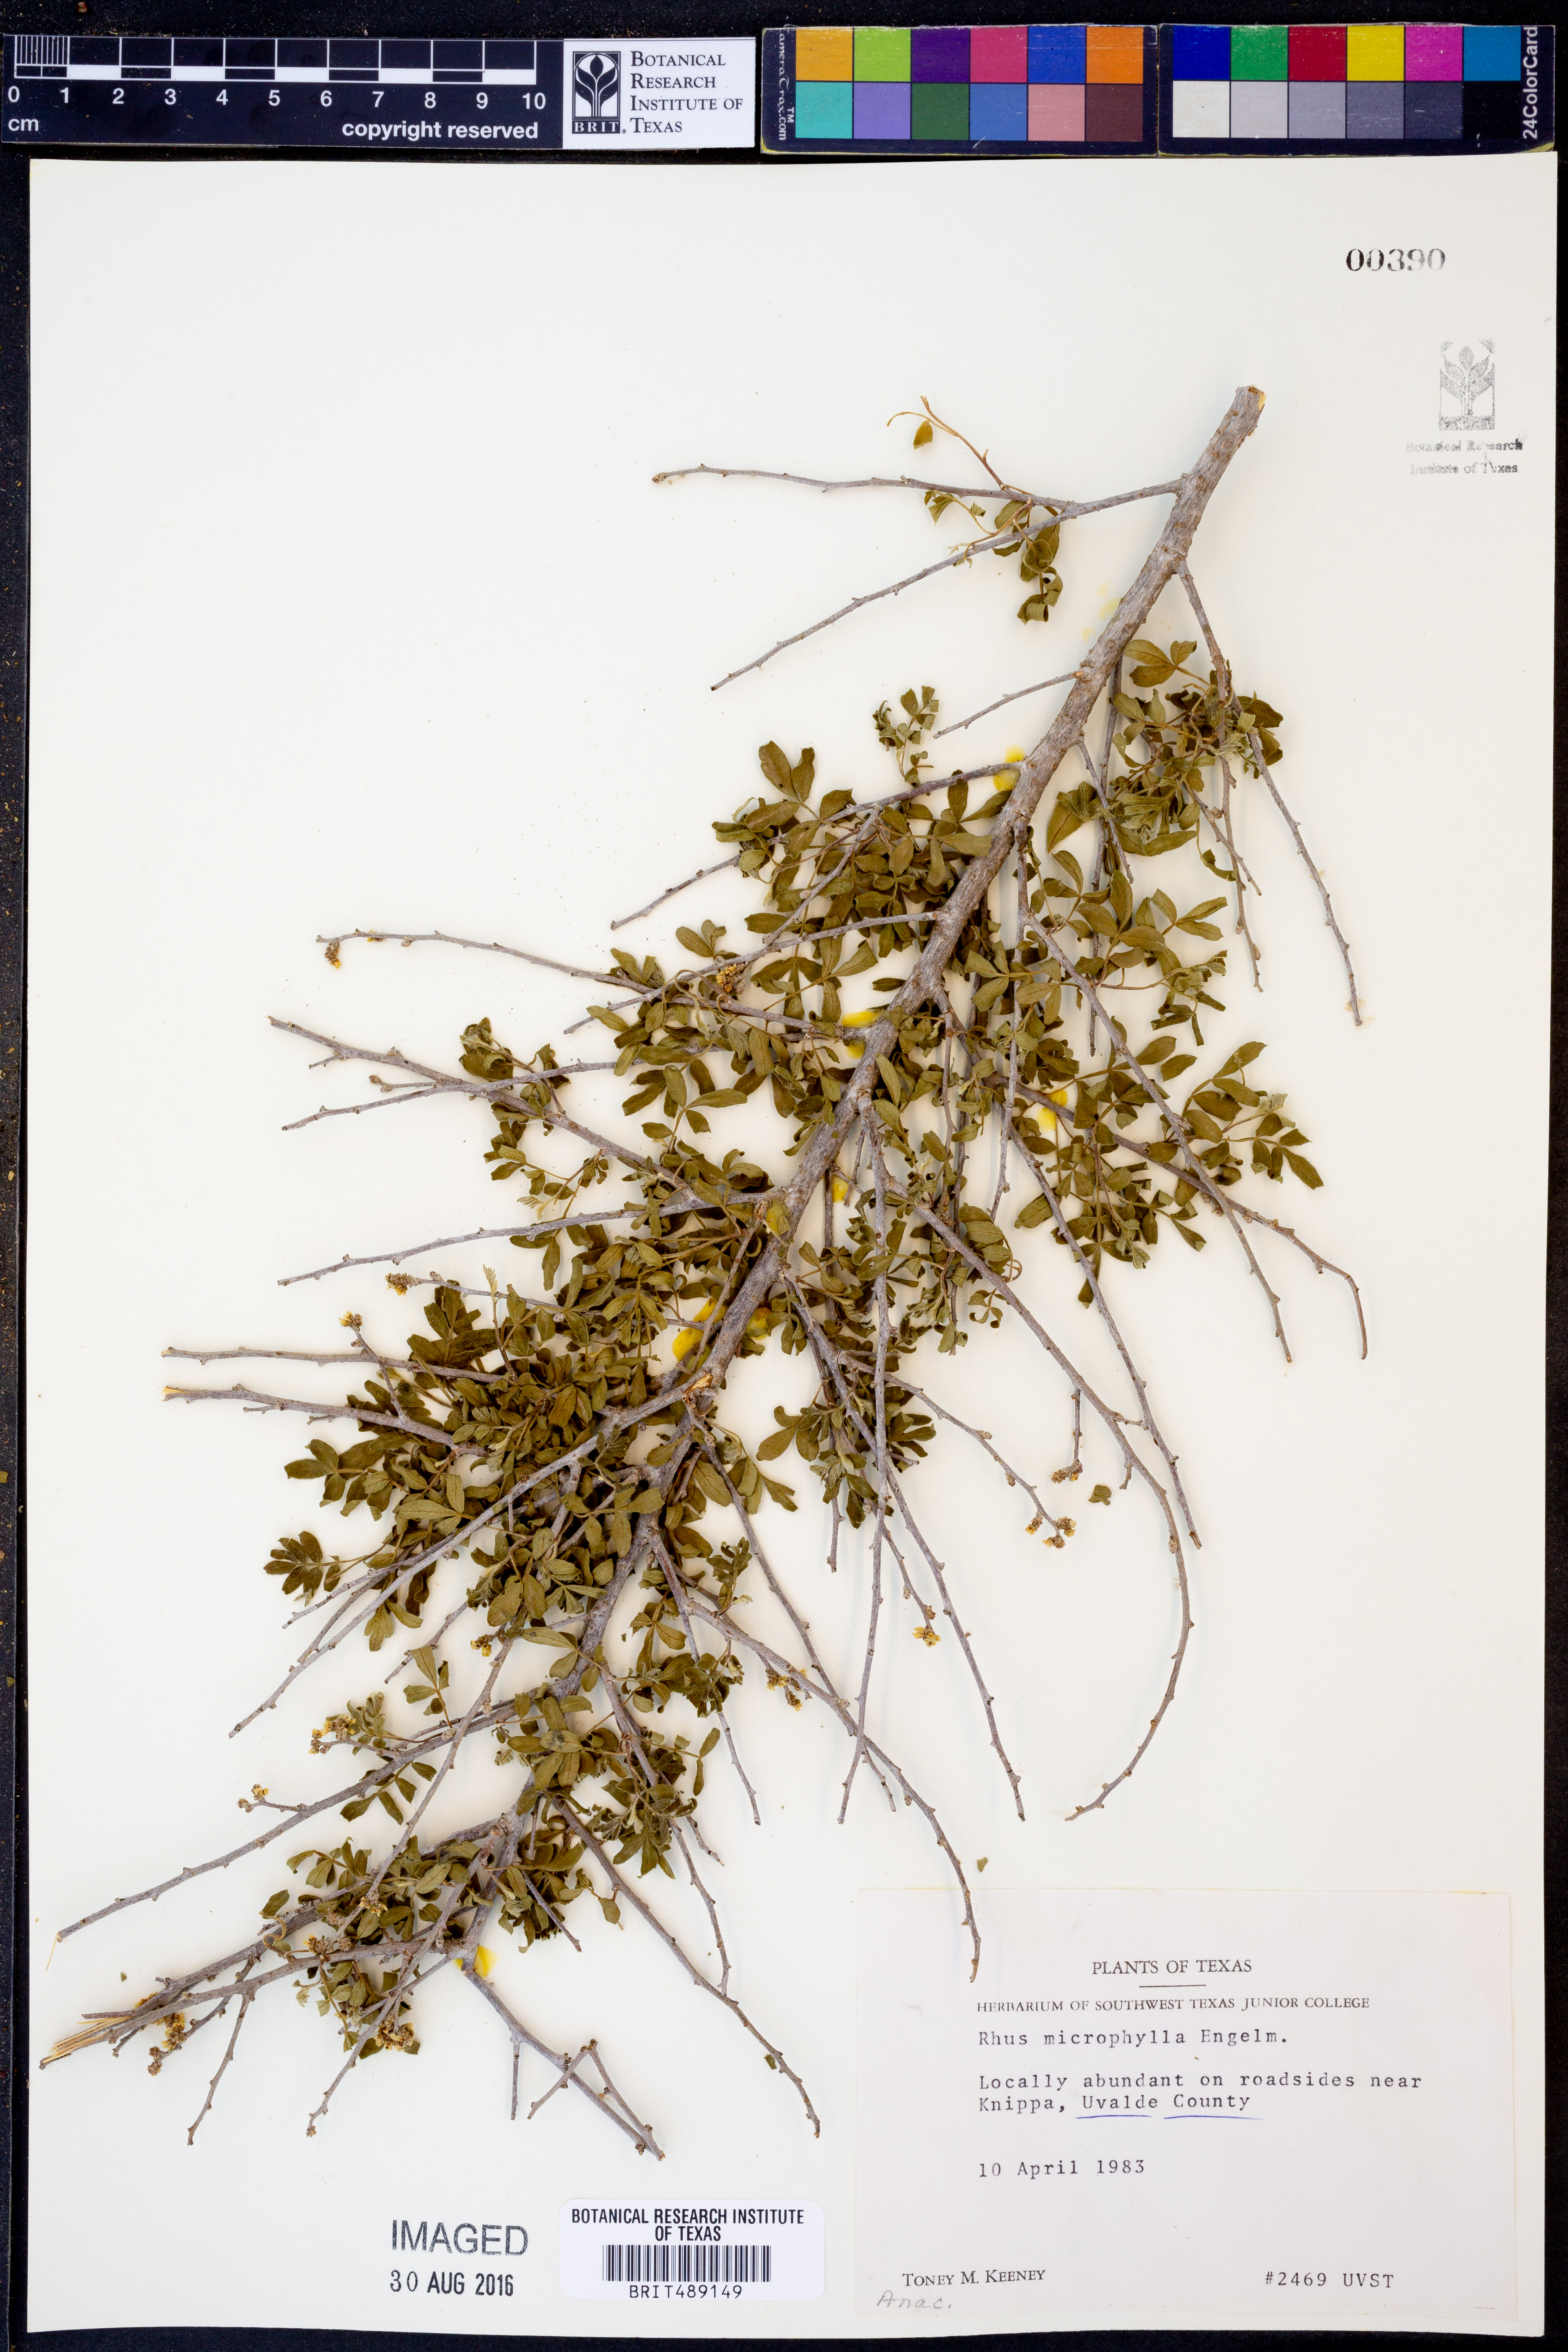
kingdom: Plantae
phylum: Tracheophyta
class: Magnoliopsida
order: Sapindales
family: Anacardiaceae
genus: Rhus
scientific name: Rhus microphylla
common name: Desert sumac
